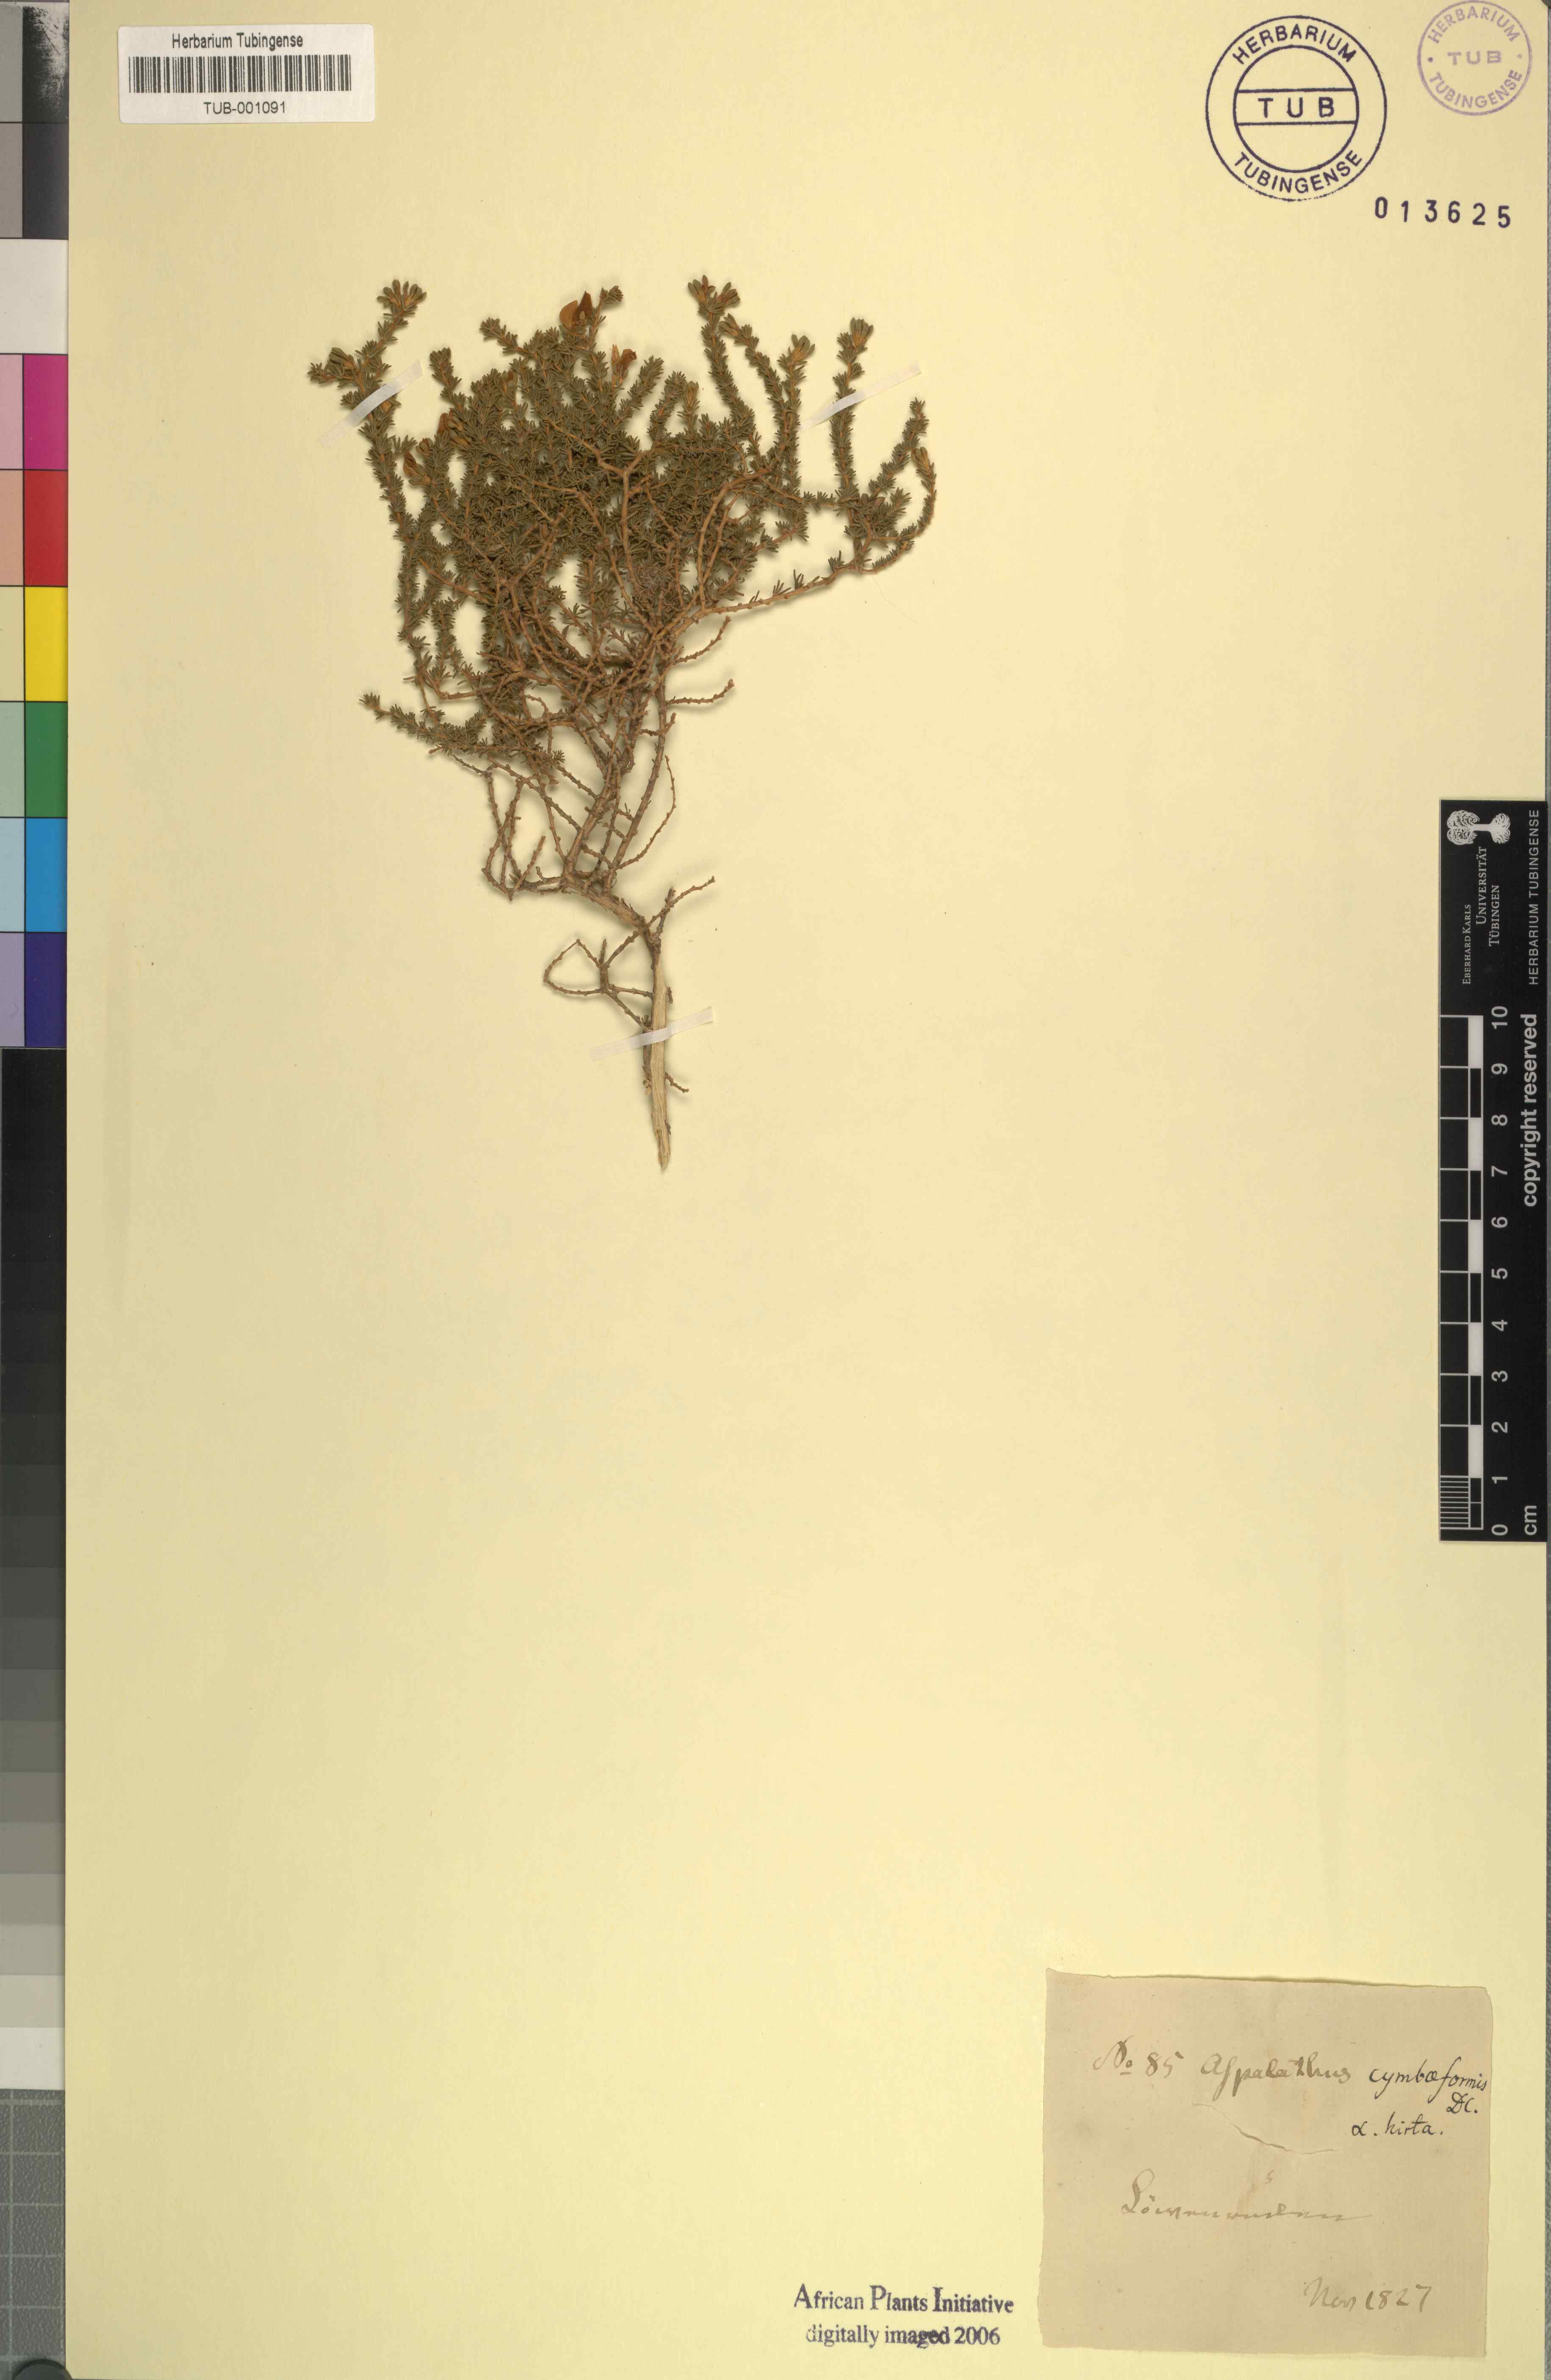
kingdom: Plantae
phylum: Tracheophyta
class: Magnoliopsida
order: Fabales
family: Fabaceae
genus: Aspalathus
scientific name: Aspalathus uniflora
